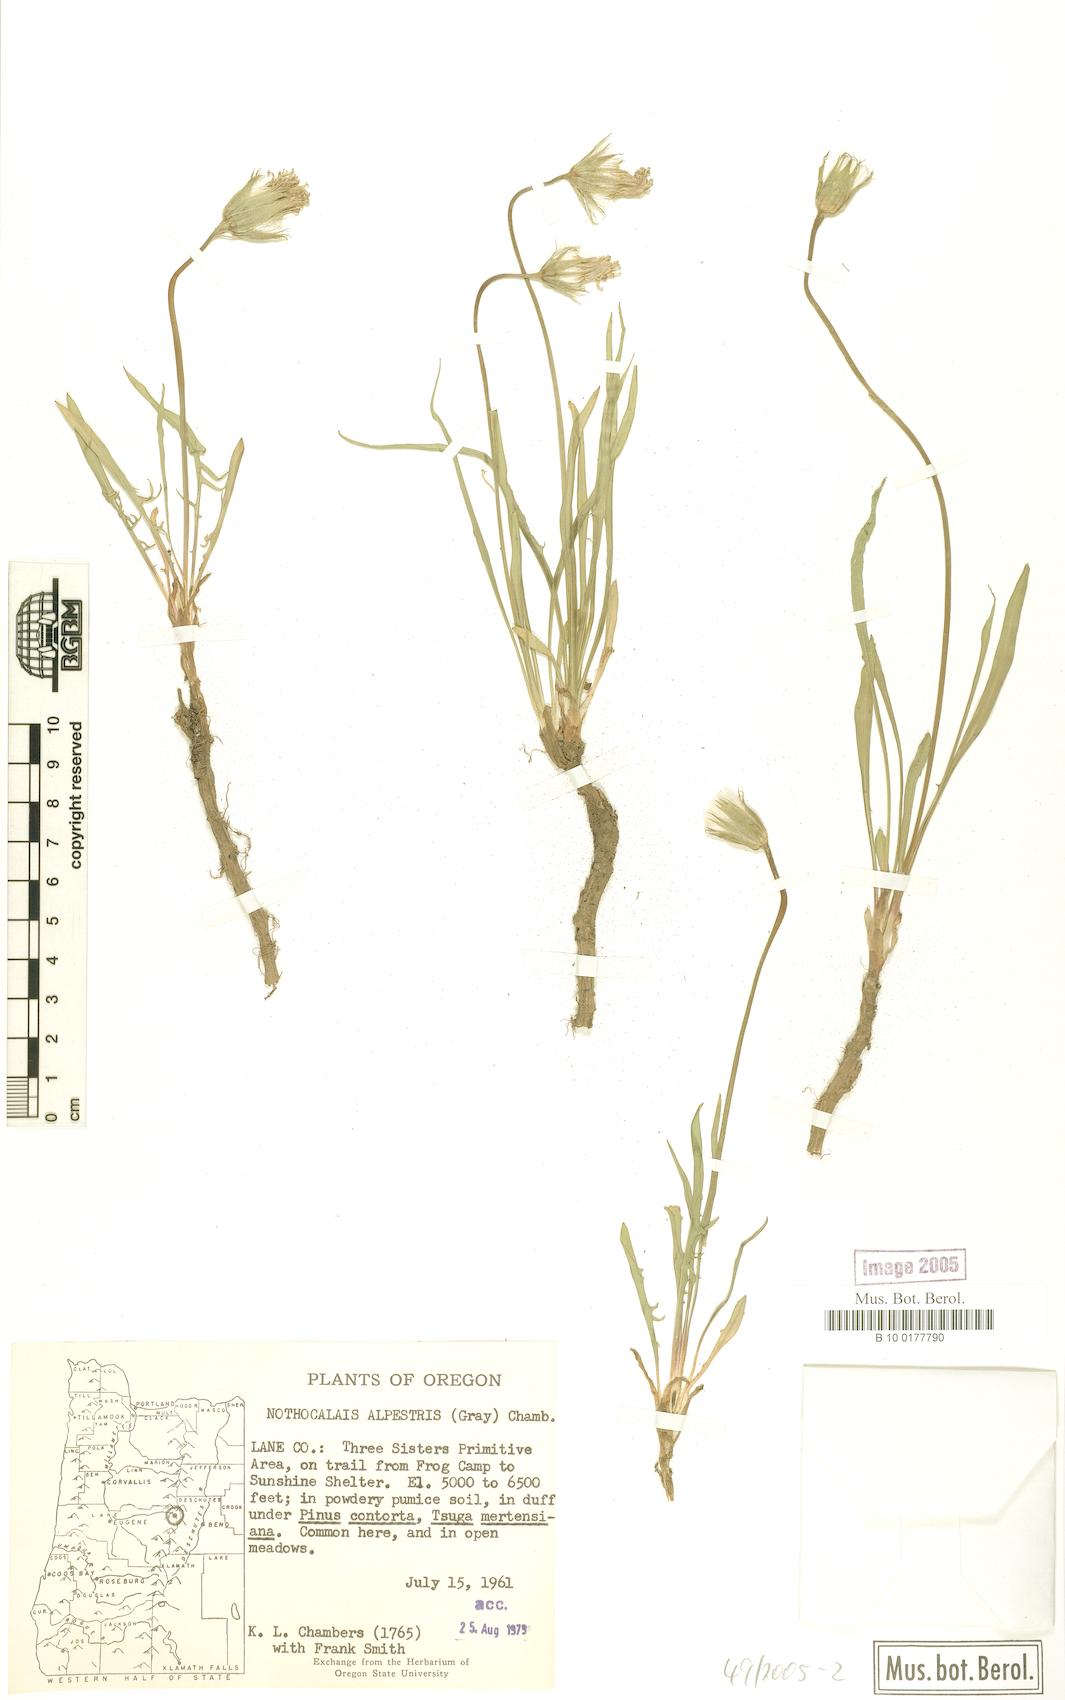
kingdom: Plantae
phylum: Tracheophyta
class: Magnoliopsida
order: Asterales
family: Asteraceae
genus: Microseris
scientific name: Microseris alpestris
